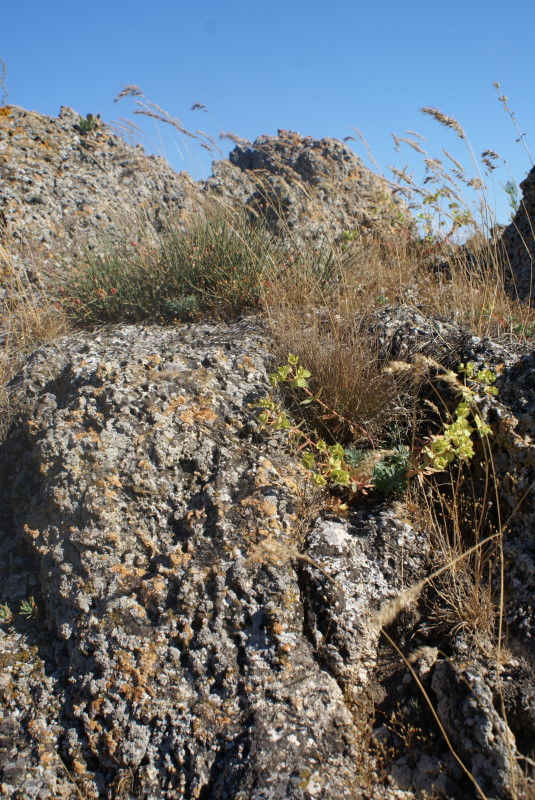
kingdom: Plantae
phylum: Tracheophyta
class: Magnoliopsida
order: Malpighiales
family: Euphorbiaceae
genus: Euphorbia
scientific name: Euphorbia petrophila
